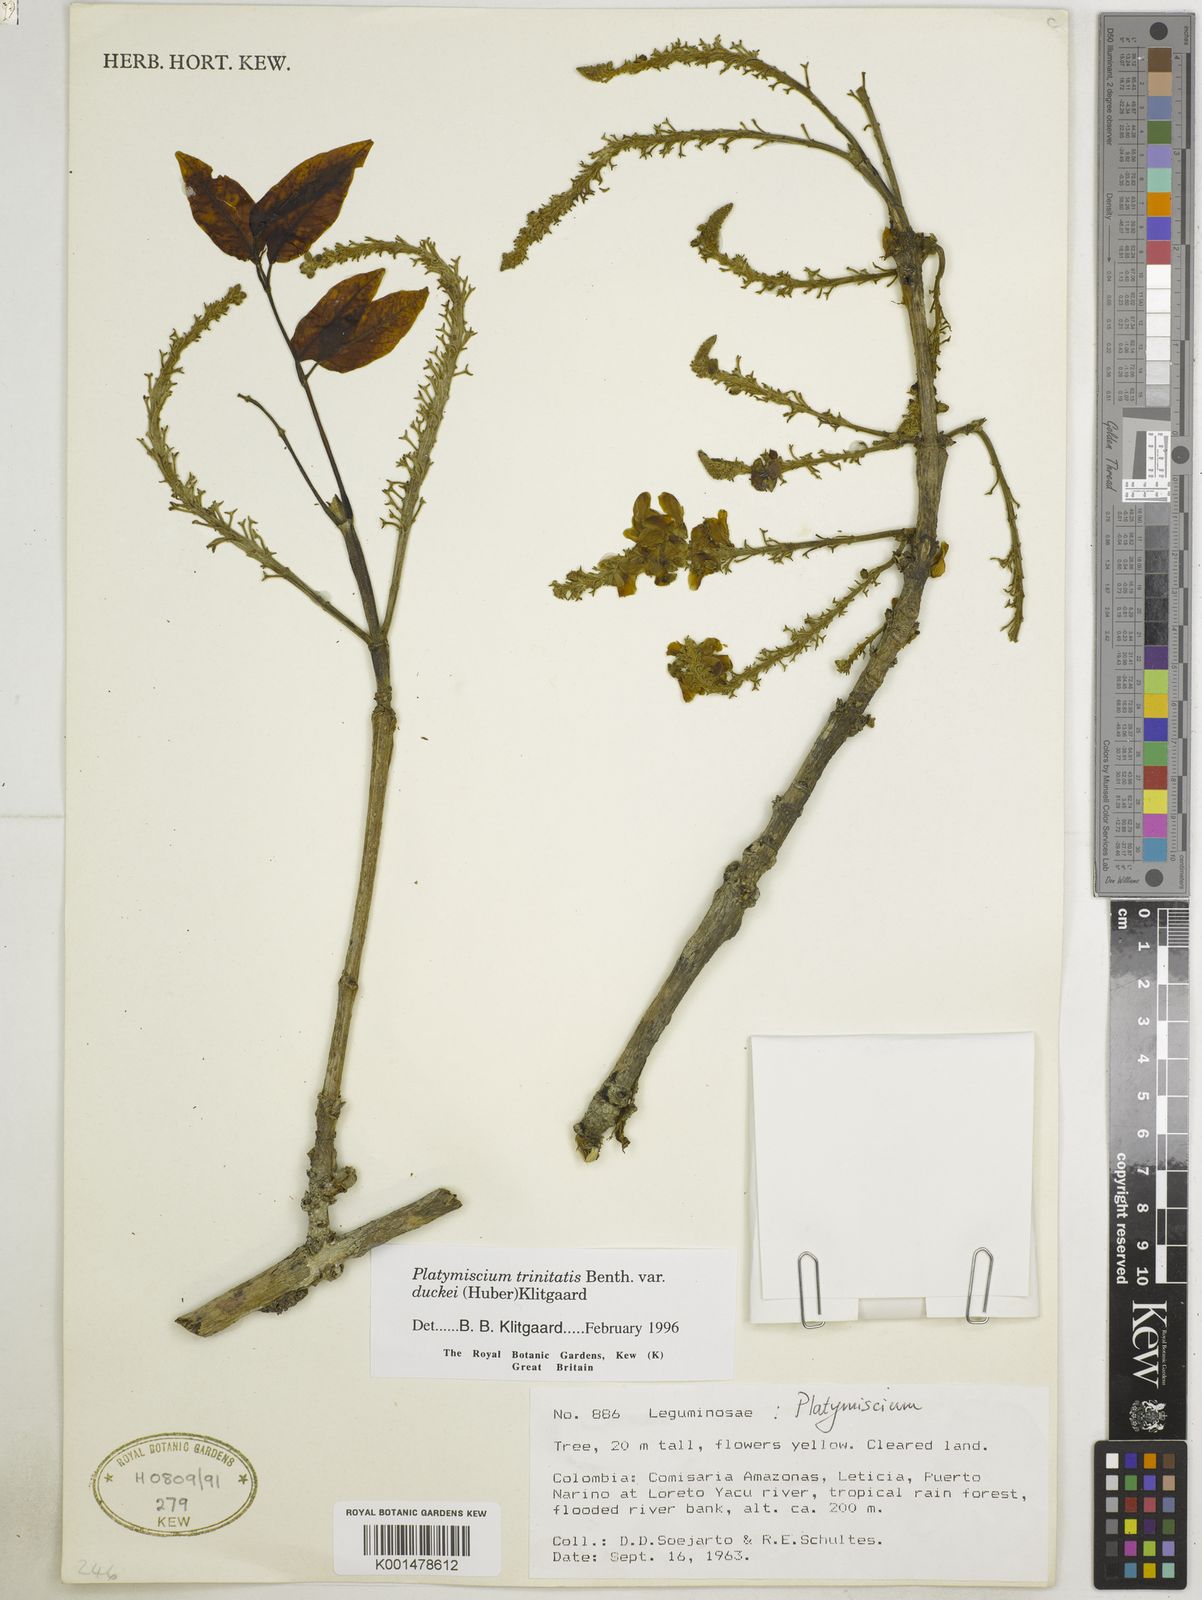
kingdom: Plantae
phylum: Tracheophyta
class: Magnoliopsida
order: Fabales
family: Fabaceae
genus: Platymiscium
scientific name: Platymiscium trinitatis
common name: Trinidad macawood
